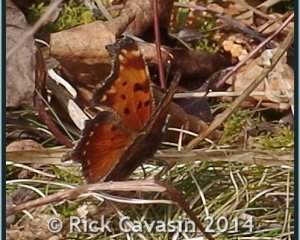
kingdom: Animalia
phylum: Arthropoda
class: Insecta
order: Lepidoptera
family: Nymphalidae
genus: Polygonia
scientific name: Polygonia progne
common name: Gray Comma
